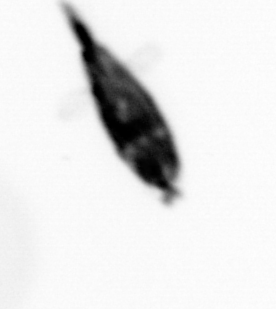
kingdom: Animalia
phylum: Arthropoda
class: Maxillopoda
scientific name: Maxillopoda
